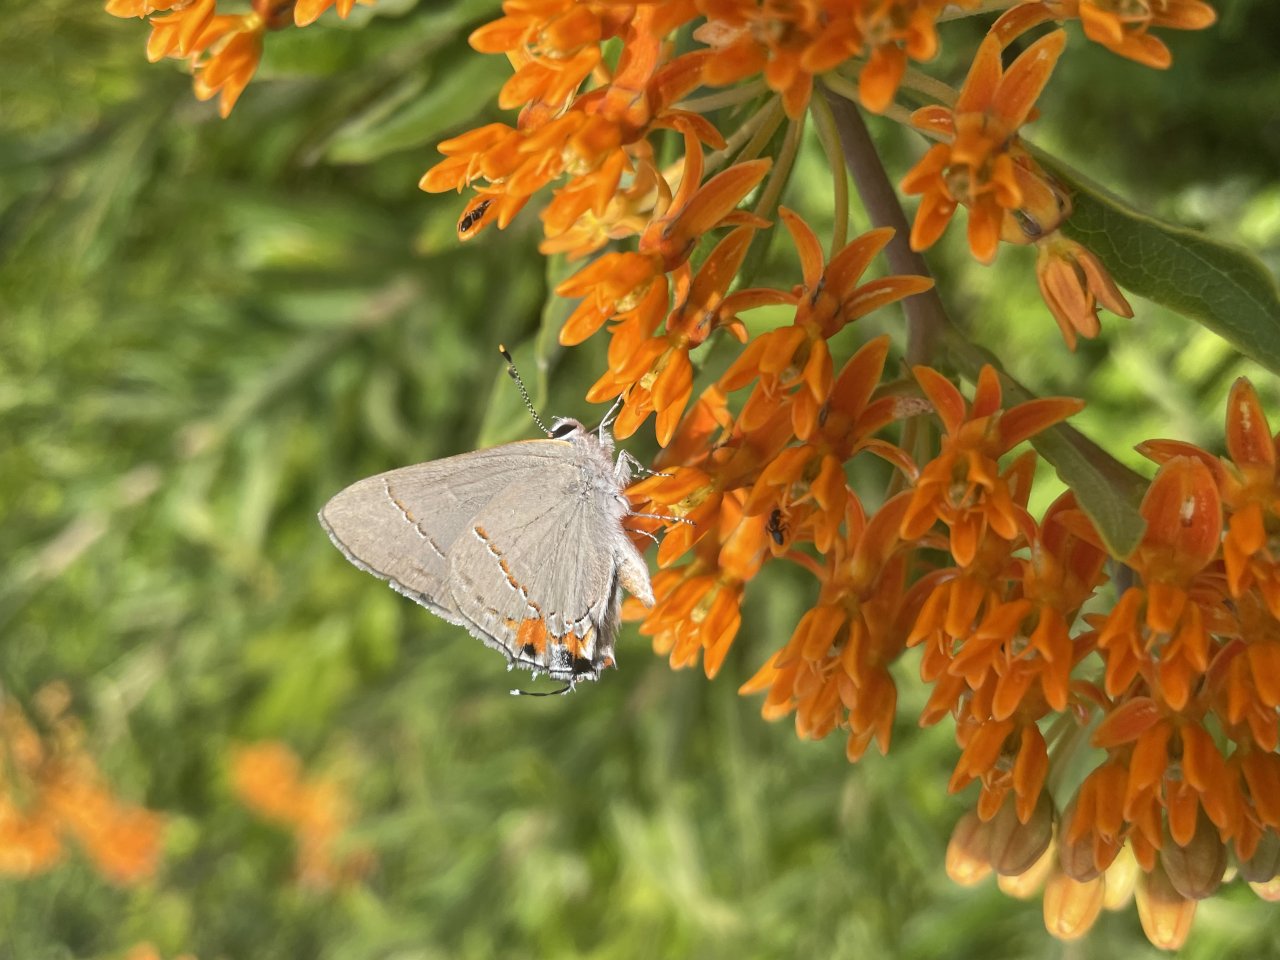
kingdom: Animalia
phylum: Arthropoda
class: Insecta
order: Lepidoptera
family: Lycaenidae
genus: Strymon
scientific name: Strymon melinus
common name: Gray Hairstreak
